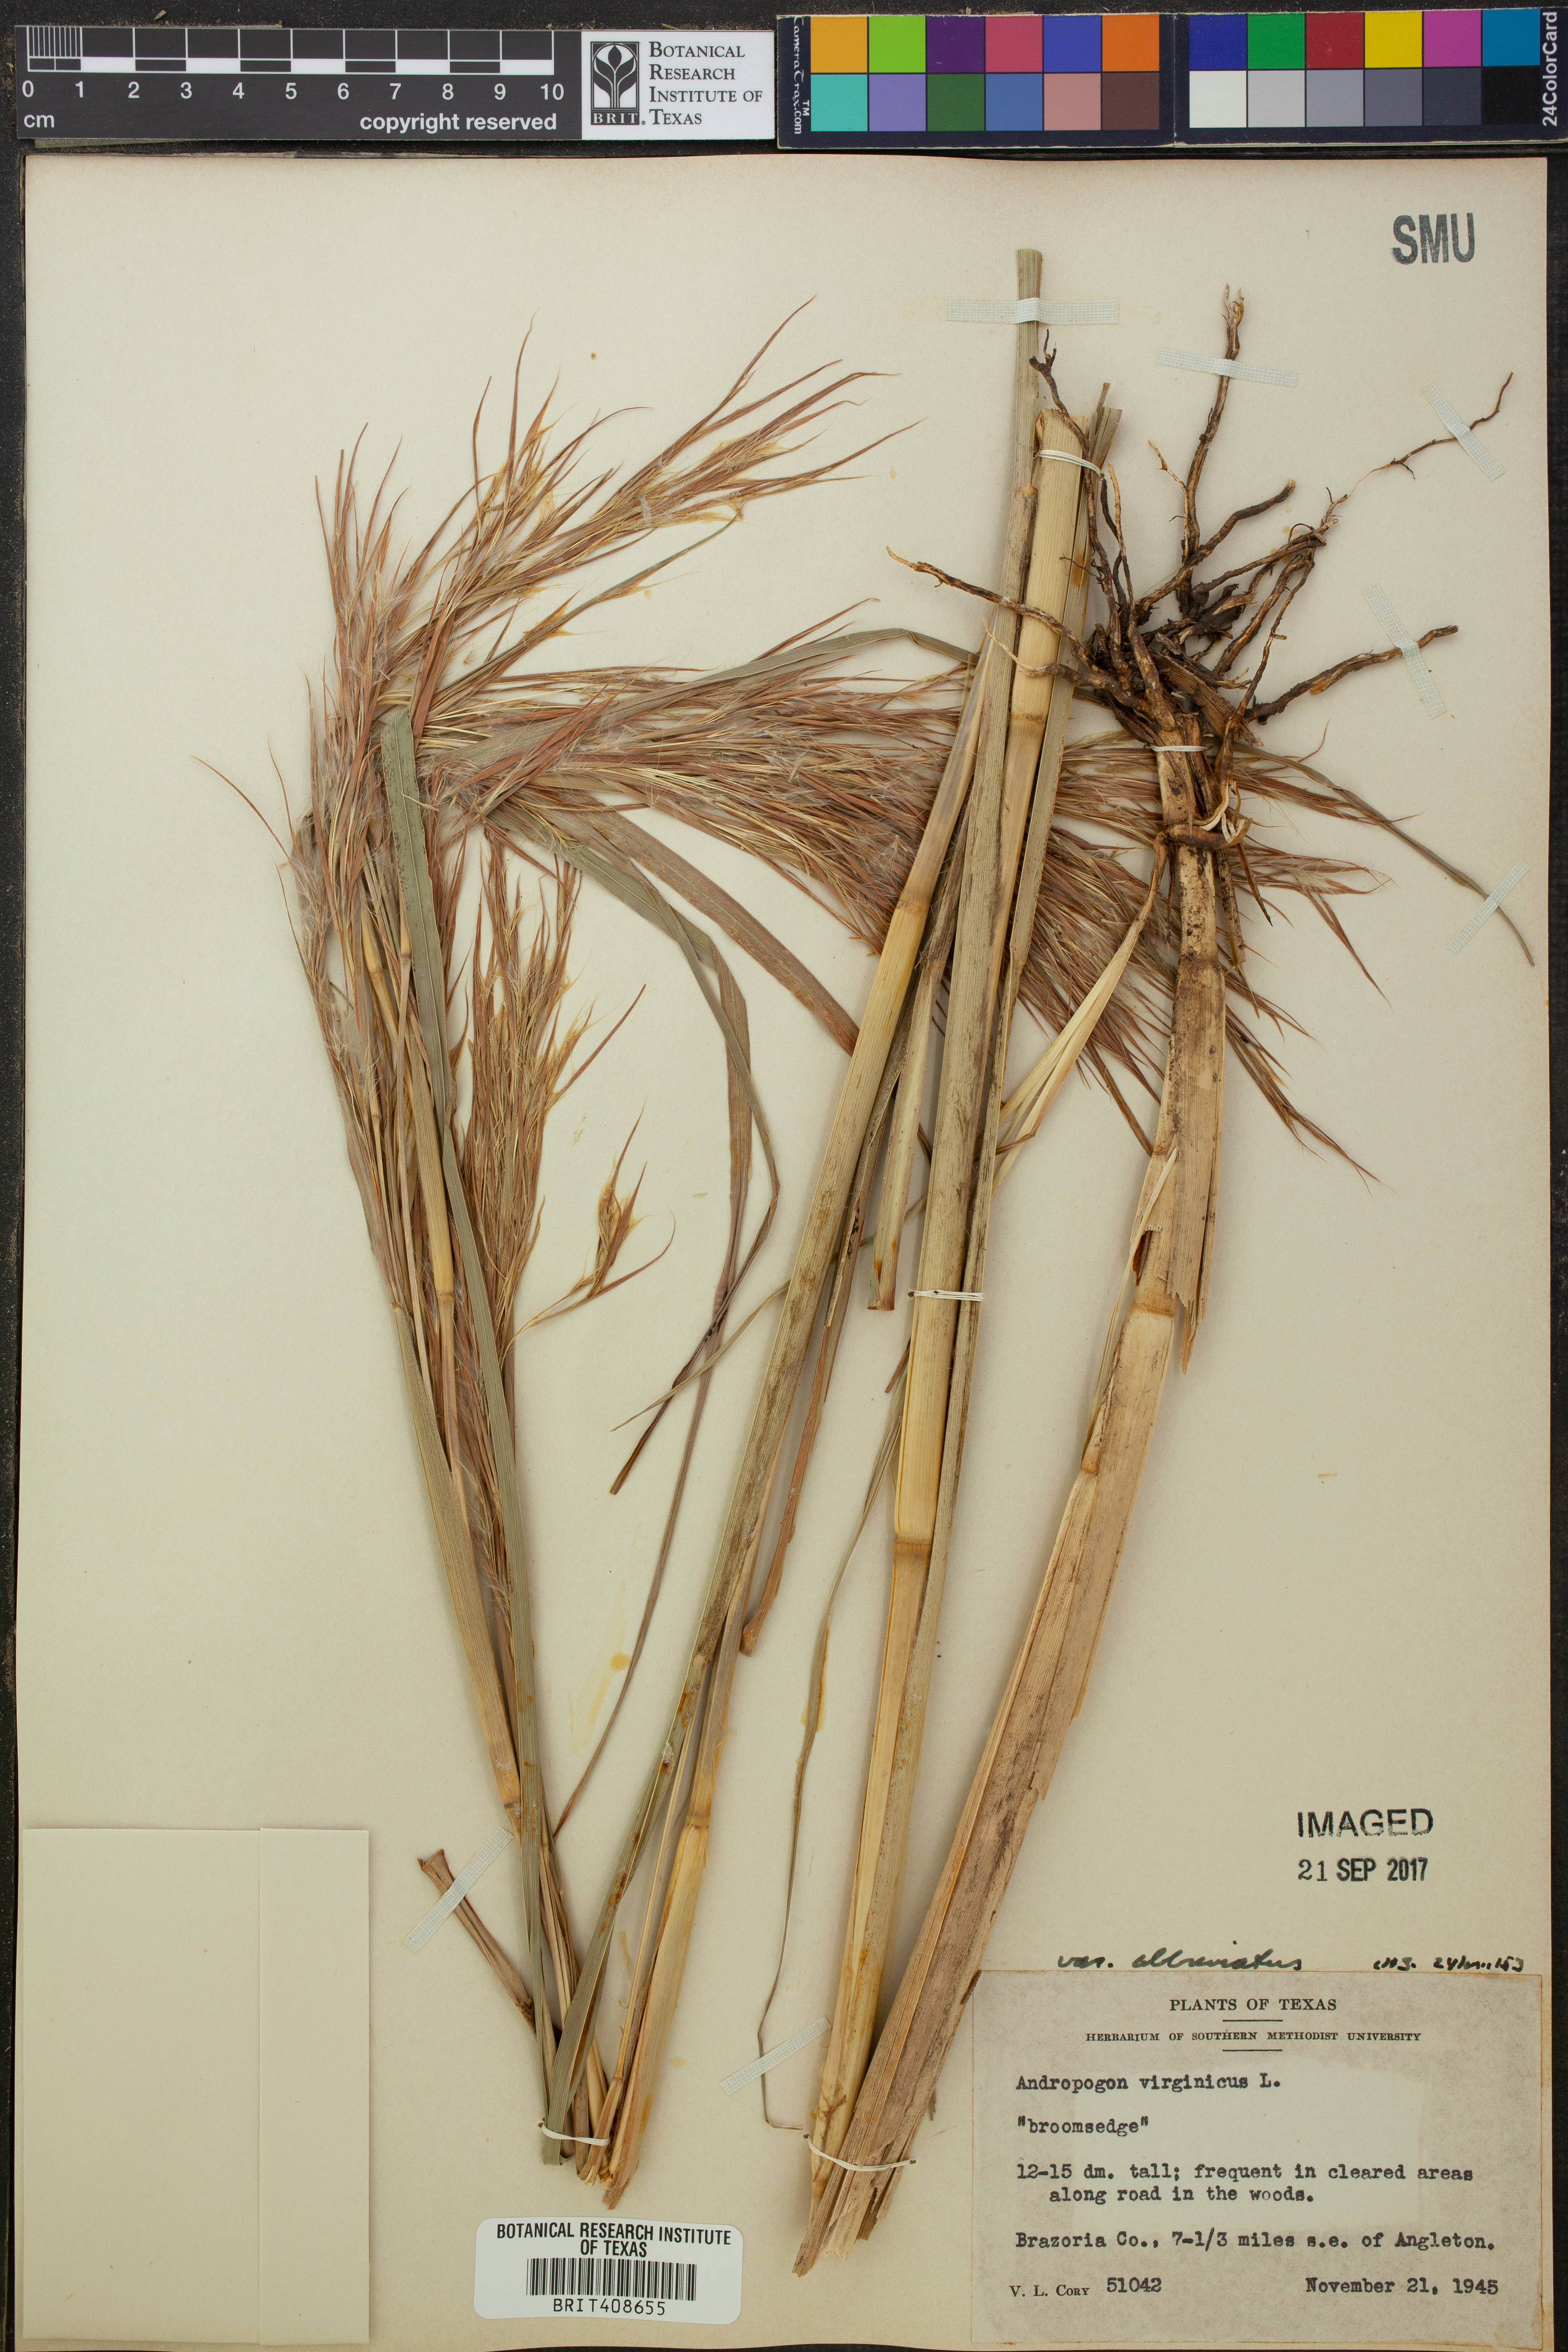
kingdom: Plantae
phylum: Tracheophyta
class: Liliopsida
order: Poales
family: Poaceae
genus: Andropogon
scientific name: Andropogon glomeratus
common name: Bushy beard grass
